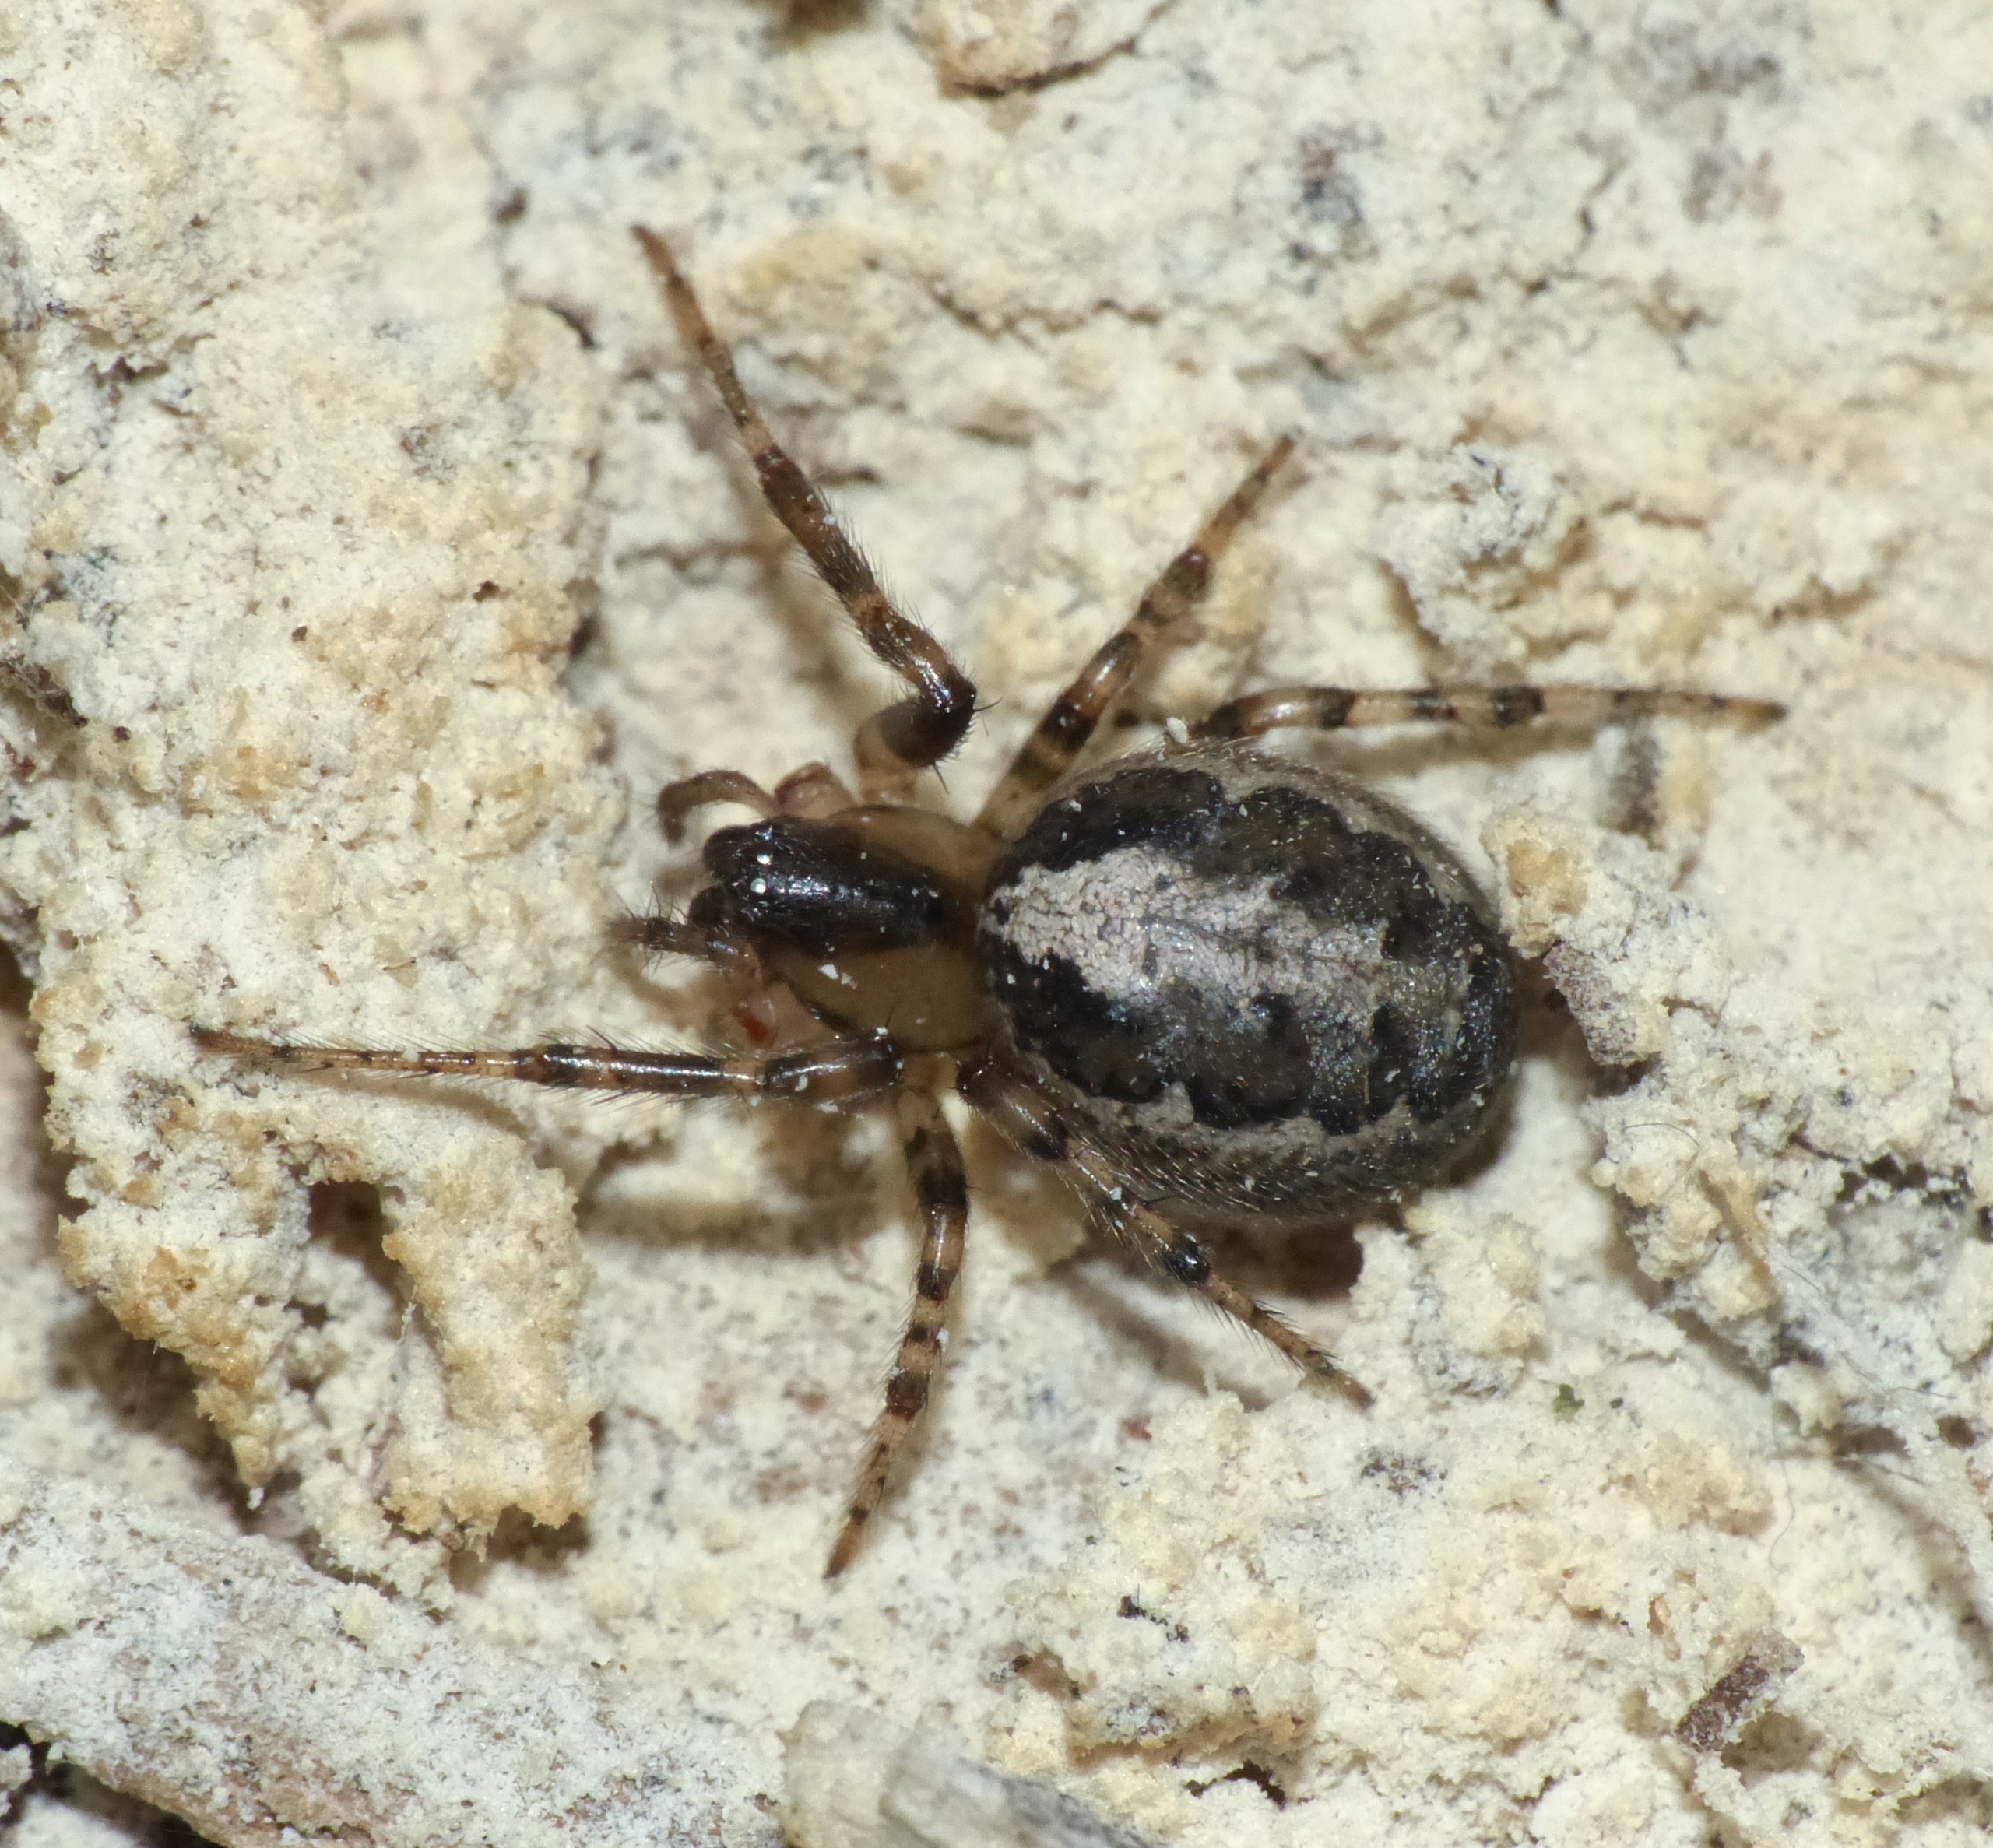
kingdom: Animalia
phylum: Arthropoda
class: Arachnida
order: Araneae
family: Araneidae
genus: Zygiella
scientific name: Zygiella x-notata
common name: Grå sektoredderkop
